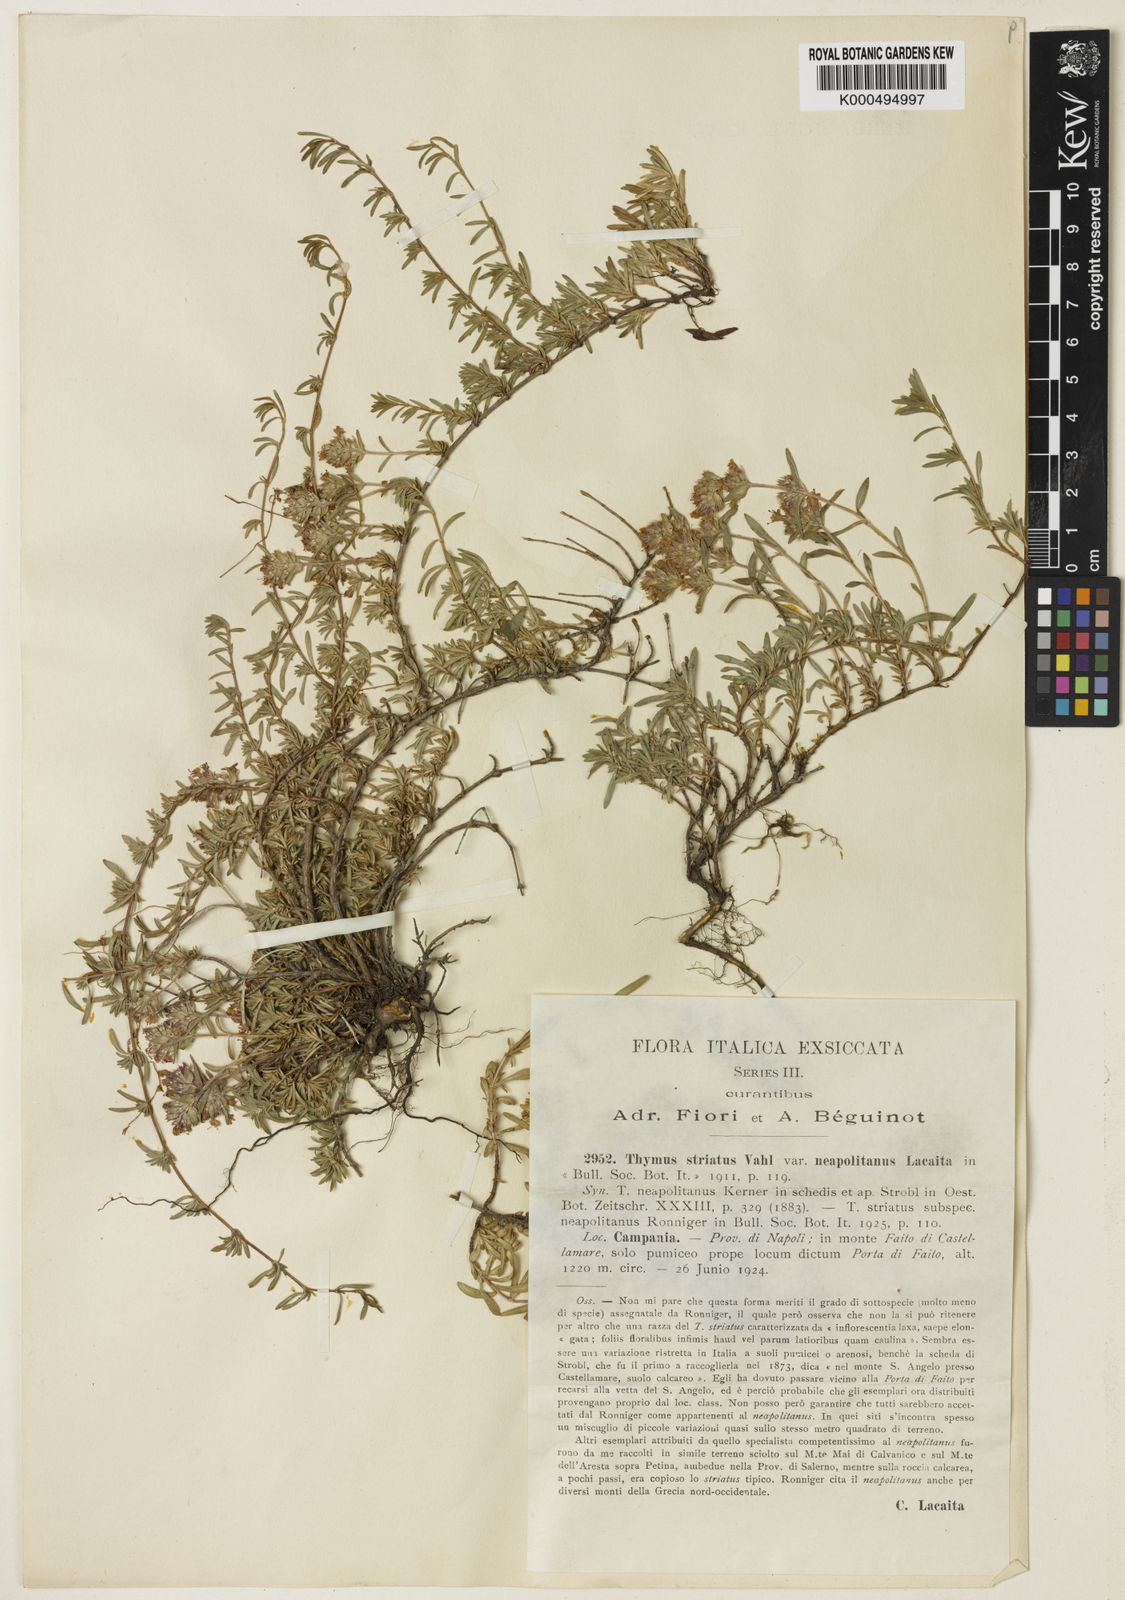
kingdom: Plantae
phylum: Tracheophyta
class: Magnoliopsida
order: Lamiales
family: Lamiaceae
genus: Thymus
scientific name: Thymus striatus
